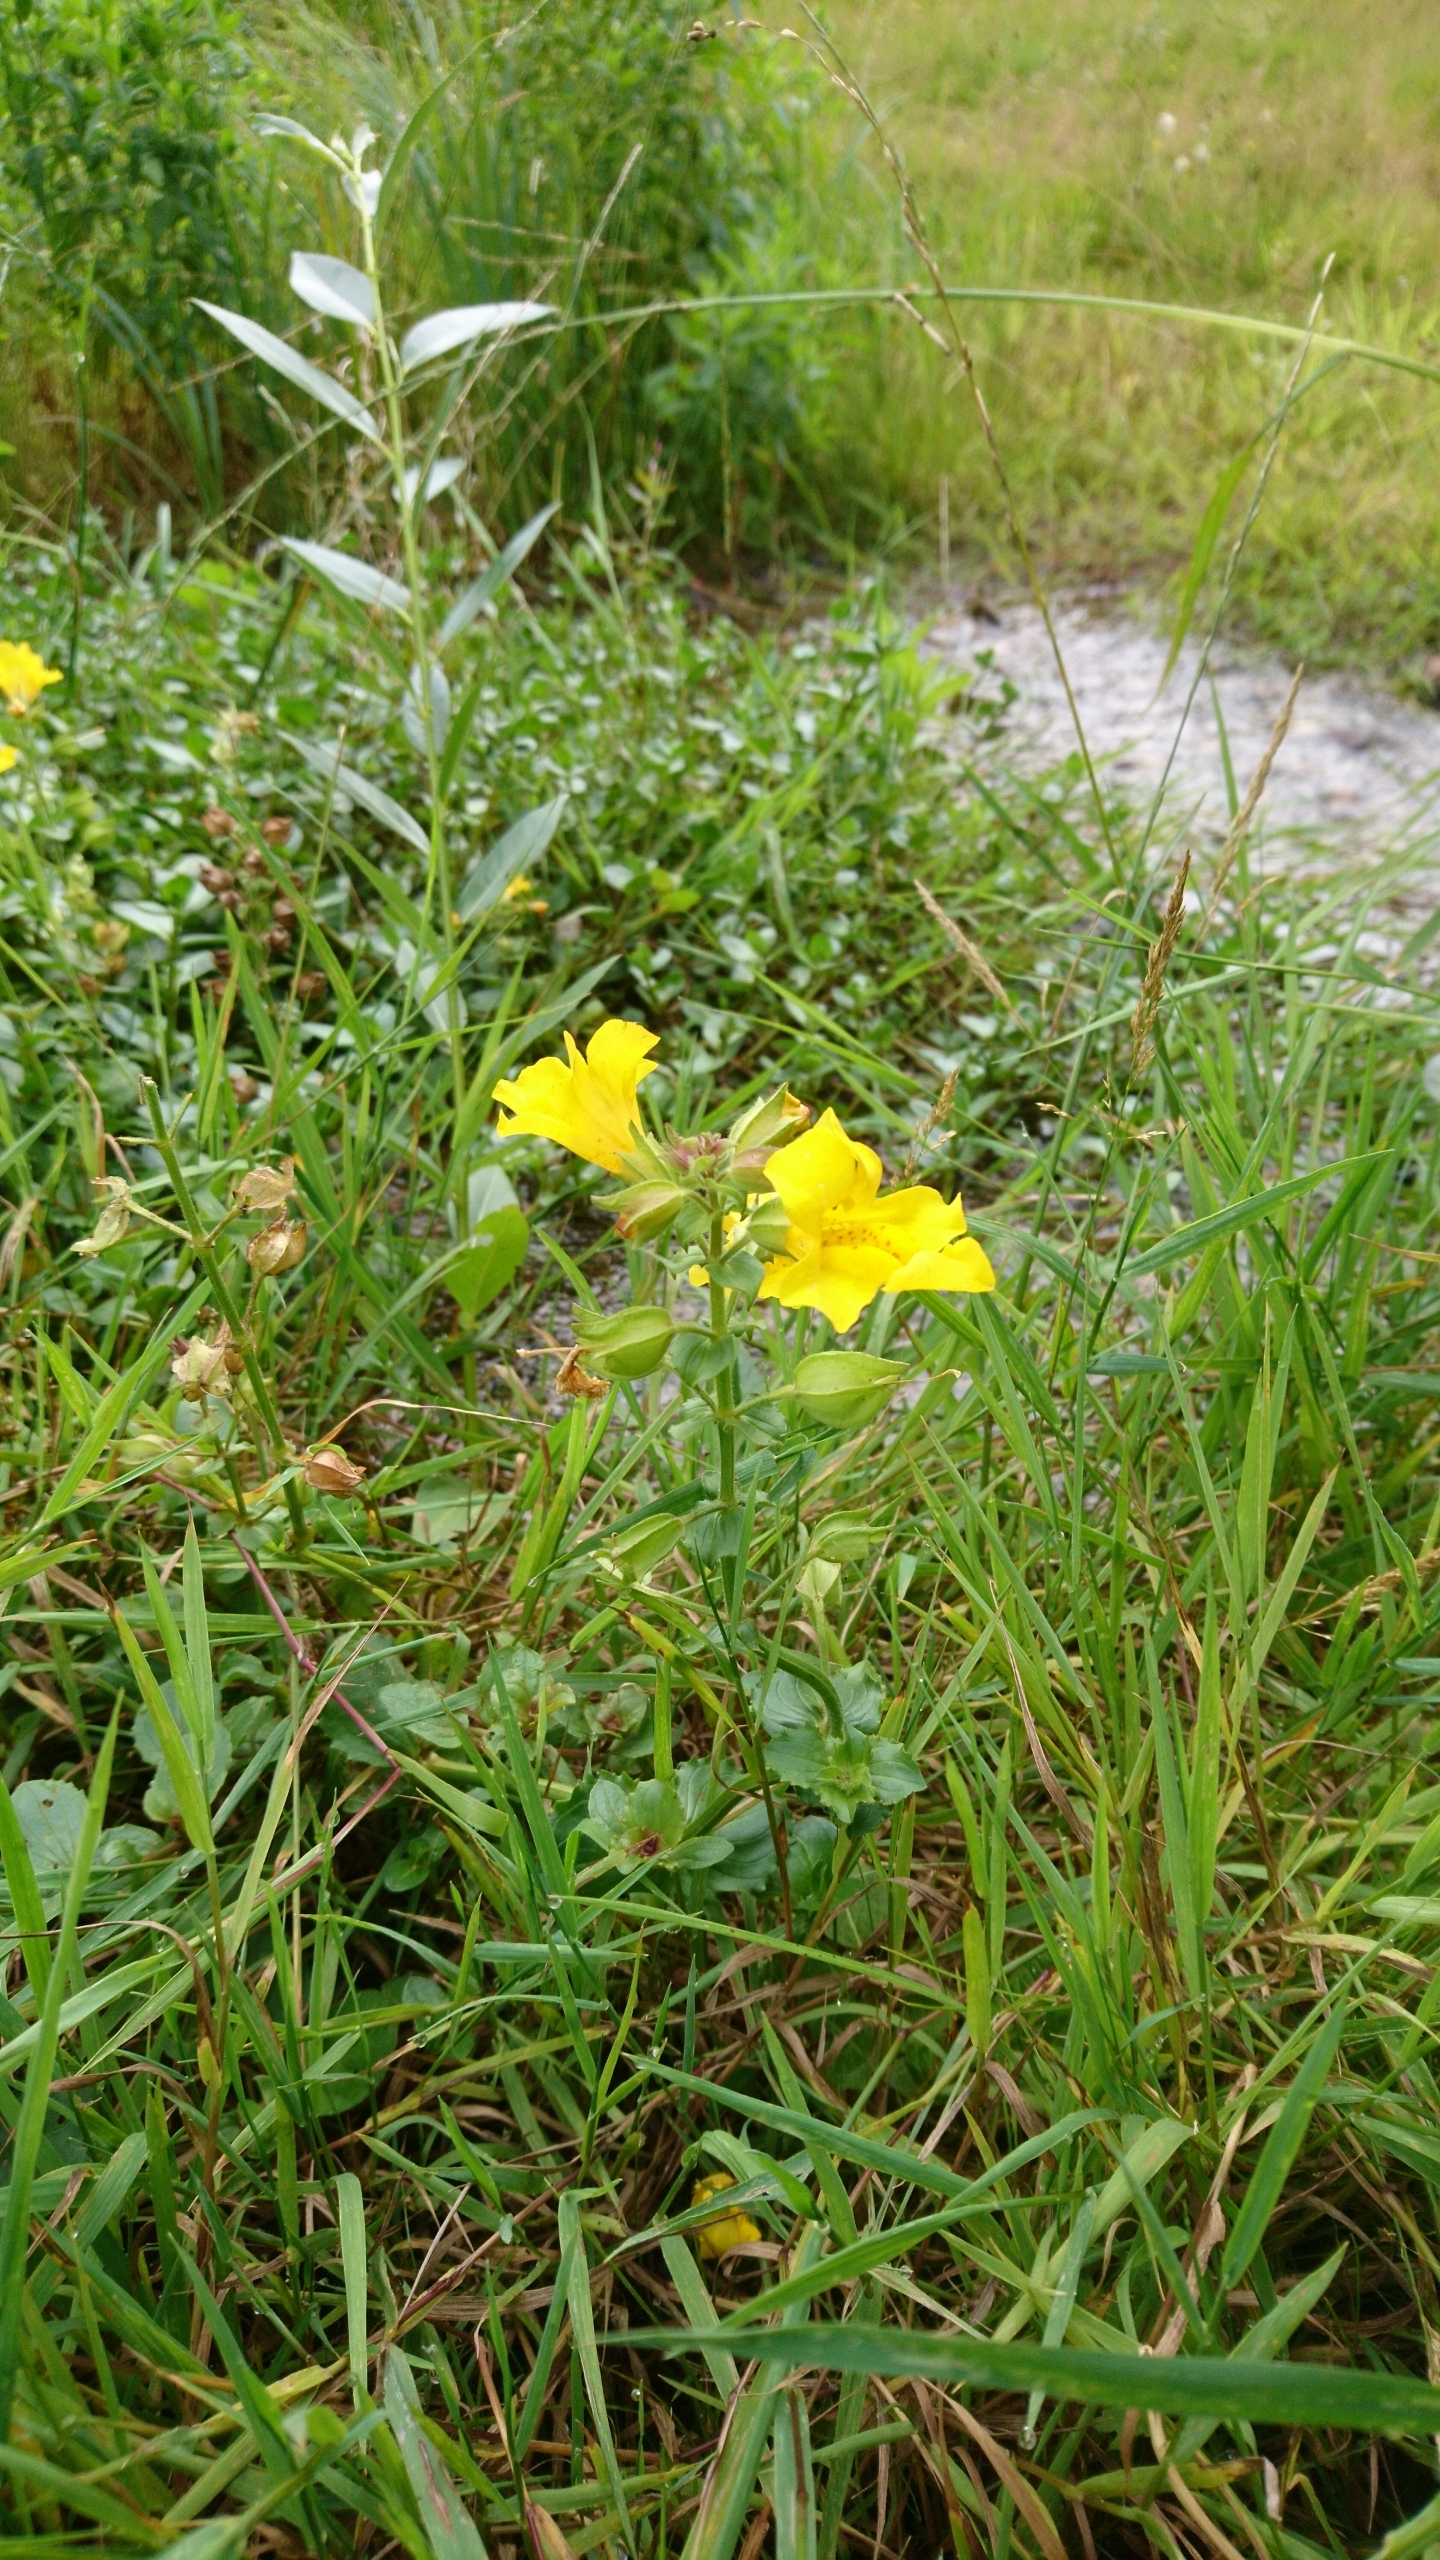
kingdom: Plantae
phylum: Tracheophyta
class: Magnoliopsida
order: Lamiales
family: Phrymaceae
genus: Erythranthe
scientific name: Erythranthe guttata
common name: Abeblomst
